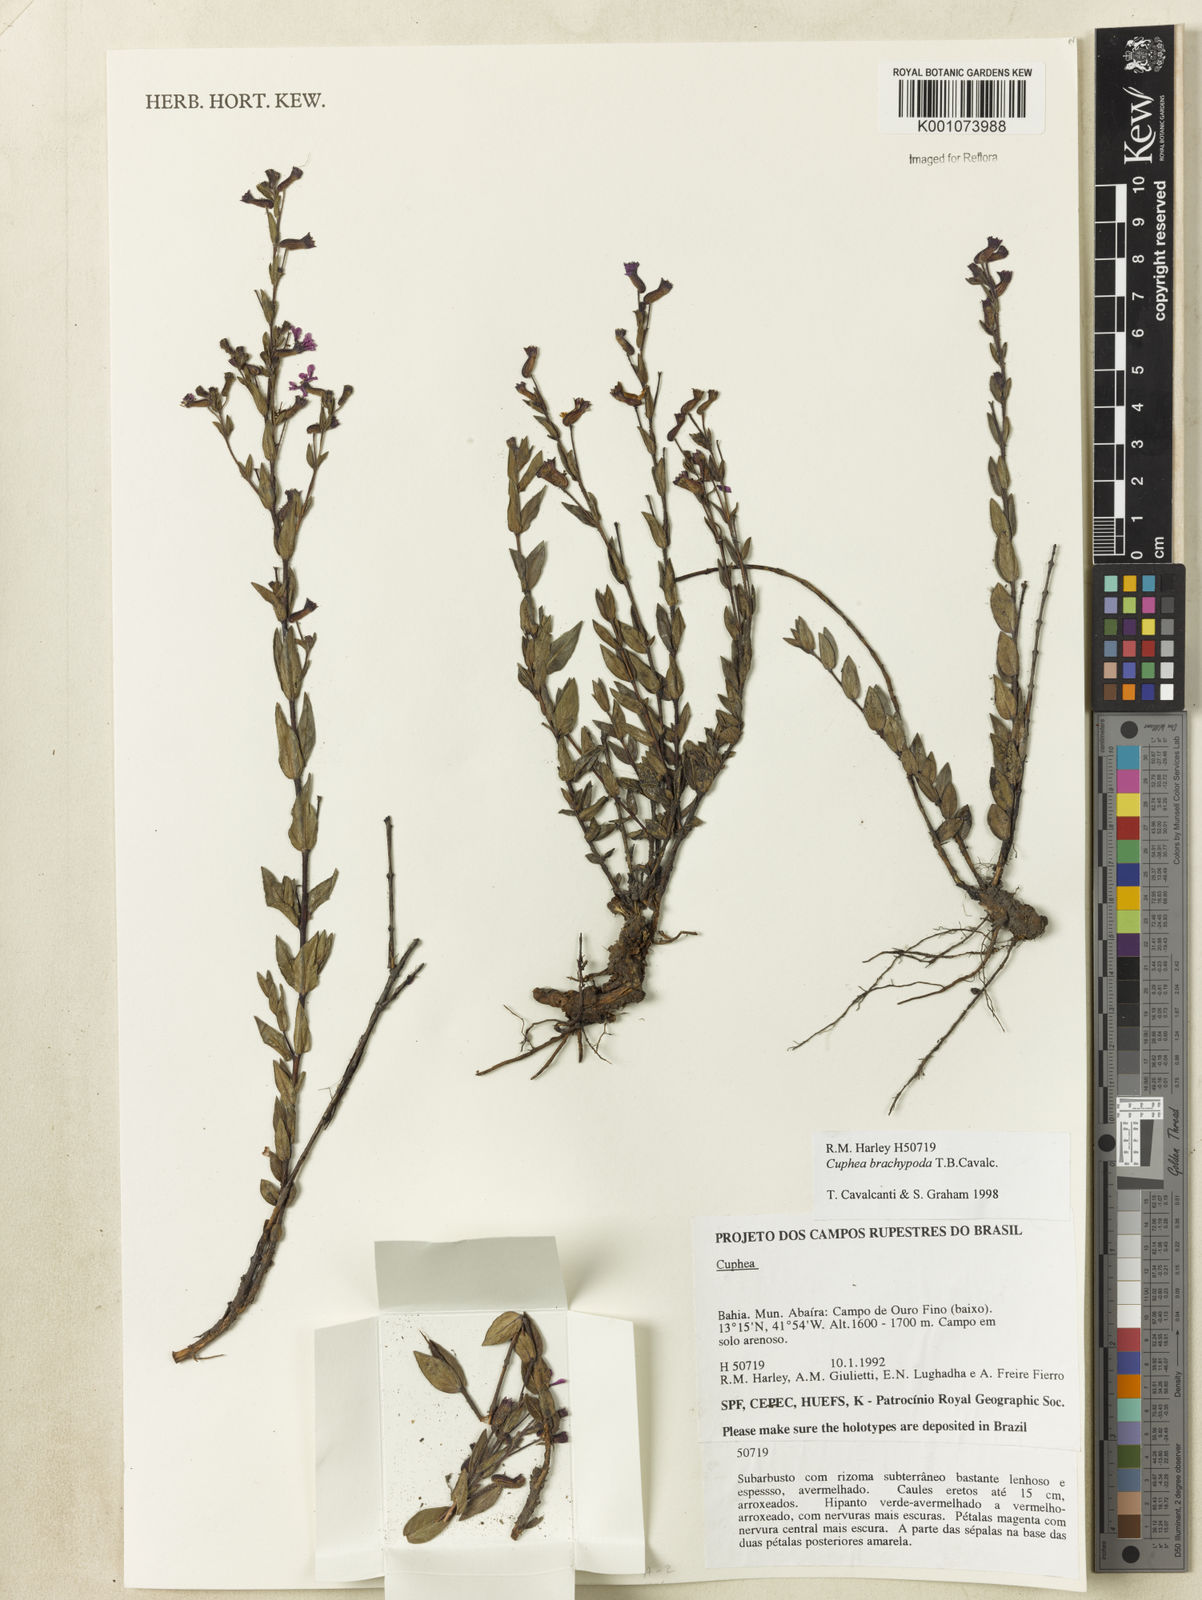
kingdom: Plantae
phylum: Tracheophyta
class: Magnoliopsida
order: Myrtales
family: Lythraceae
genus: Cuphea
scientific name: Cuphea brachypoda
